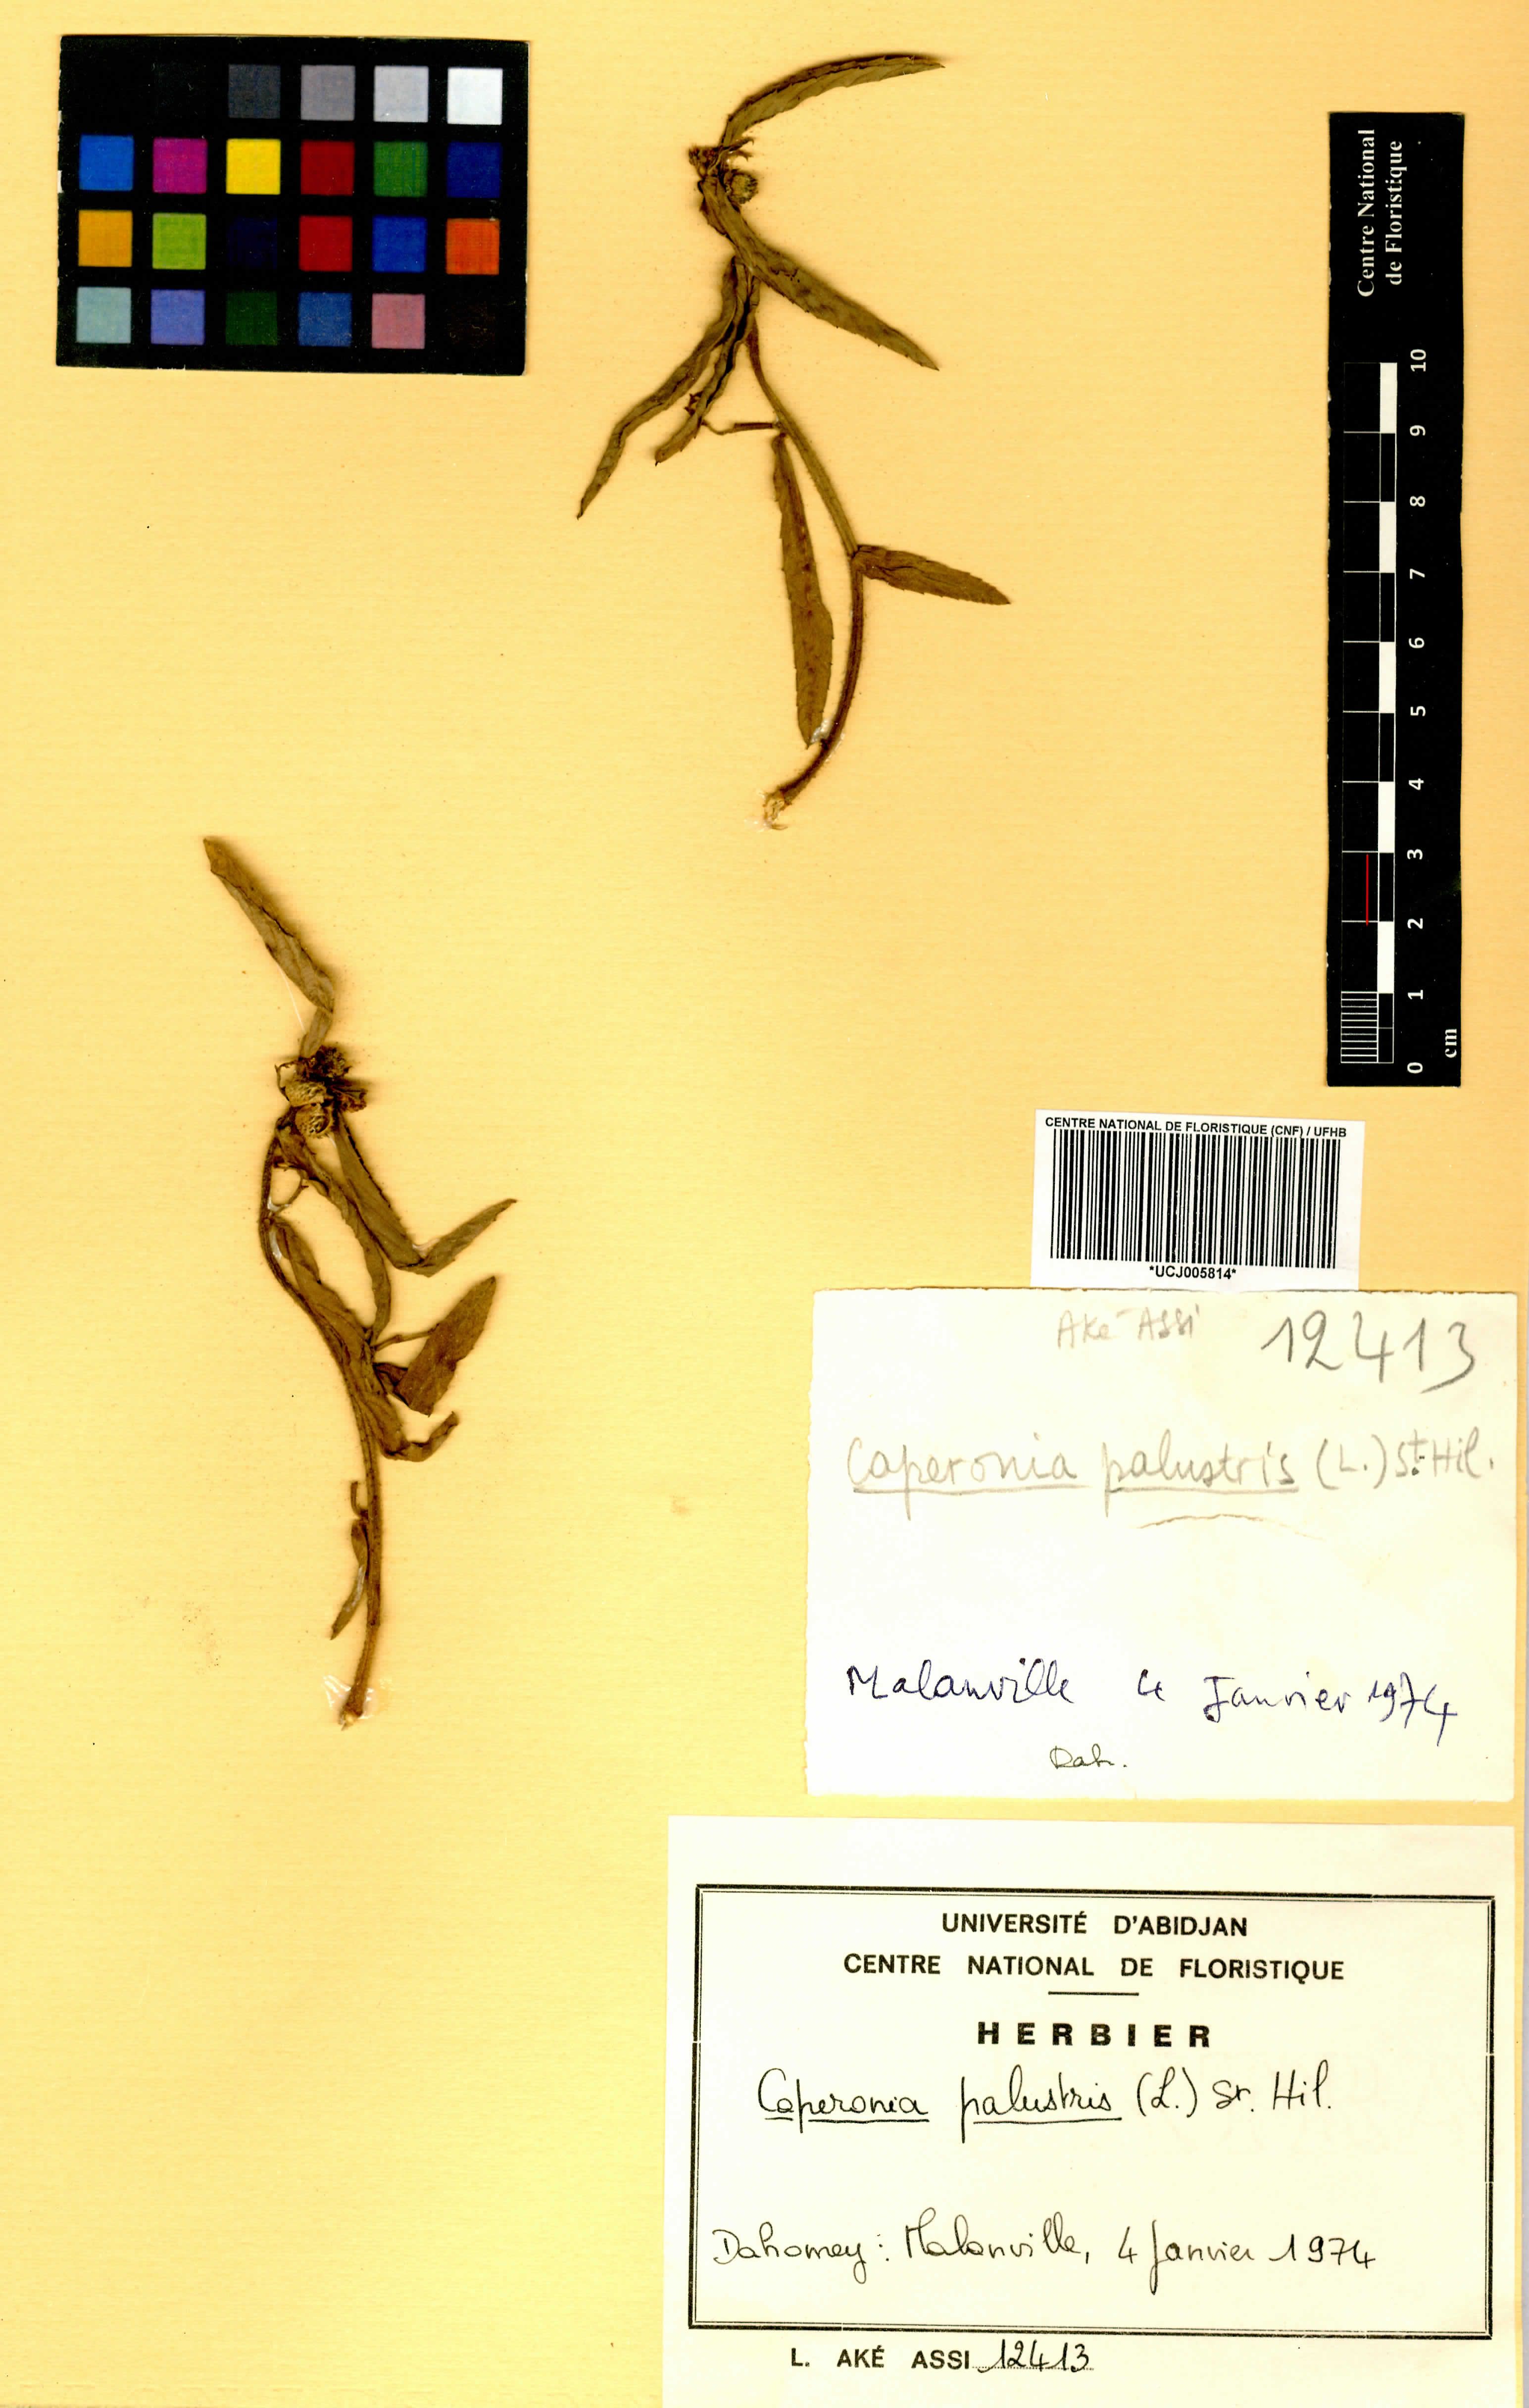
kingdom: Plantae
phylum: Tracheophyta
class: Magnoliopsida
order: Malpighiales
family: Euphorbiaceae
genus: Caperonia
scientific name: Caperonia palustris
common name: Sacatrapo
